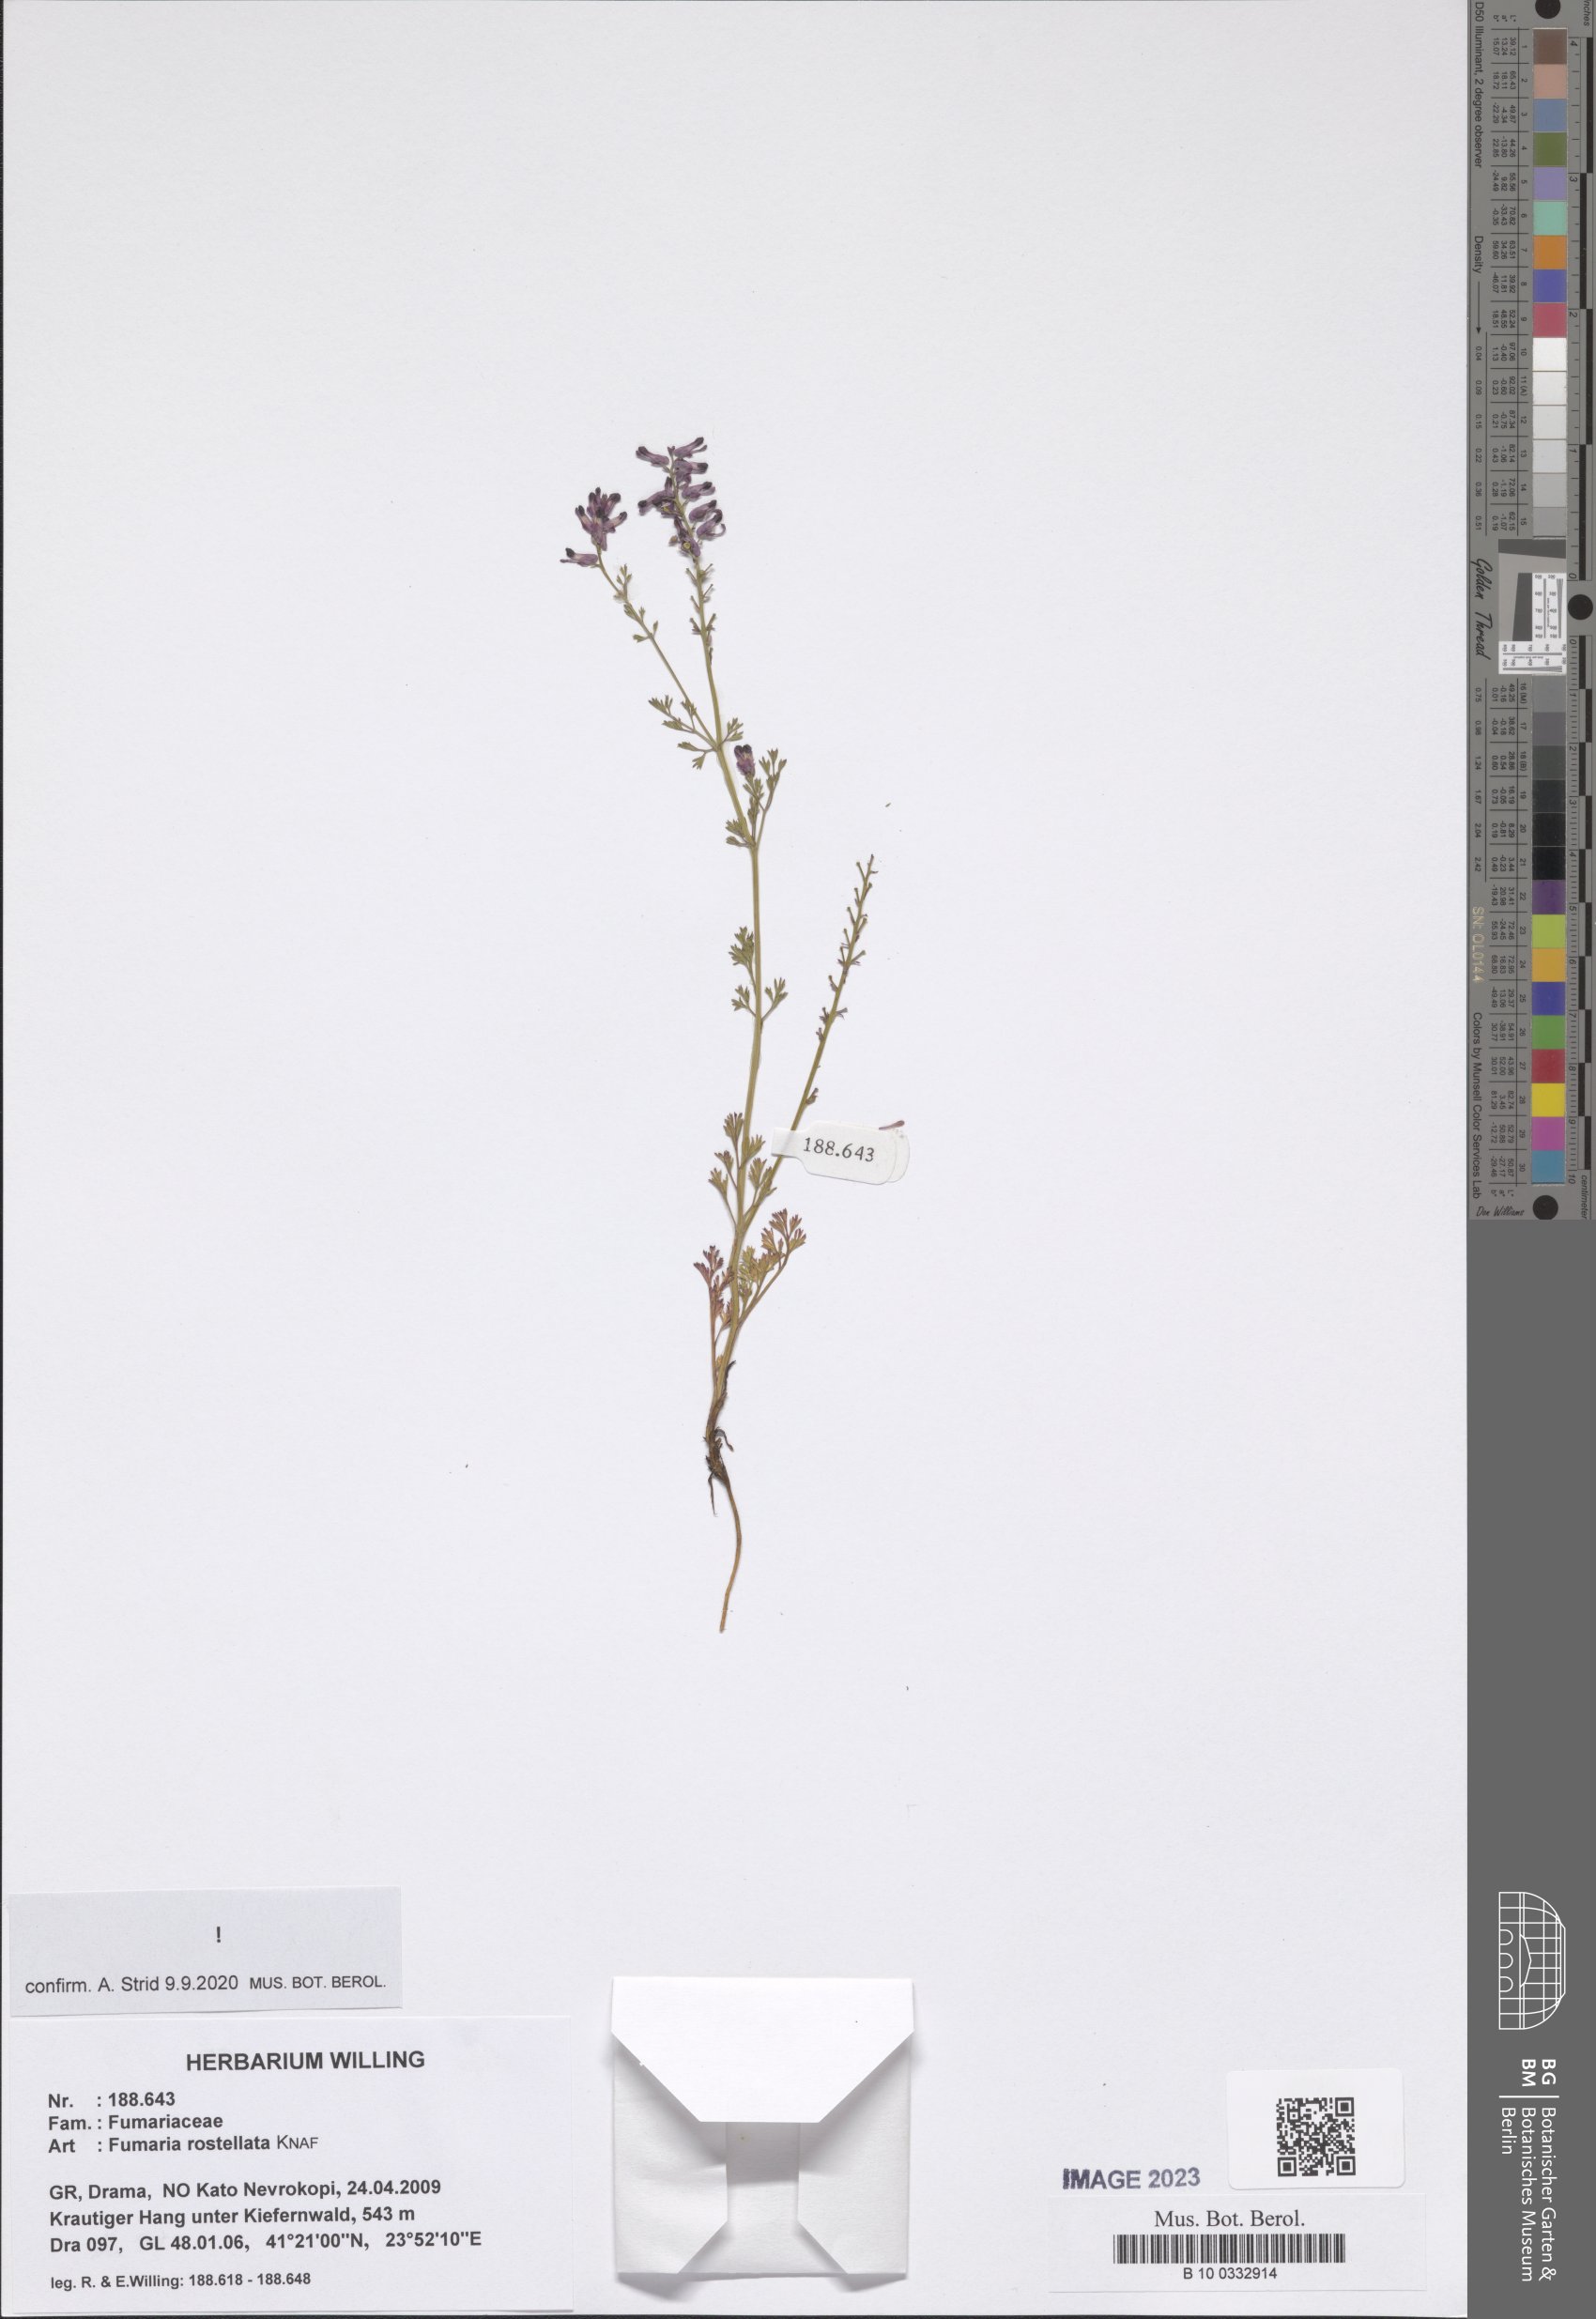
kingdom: Plantae
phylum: Tracheophyta
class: Magnoliopsida
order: Ranunculales
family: Papaveraceae
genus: Fumaria
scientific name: Fumaria rostellata
